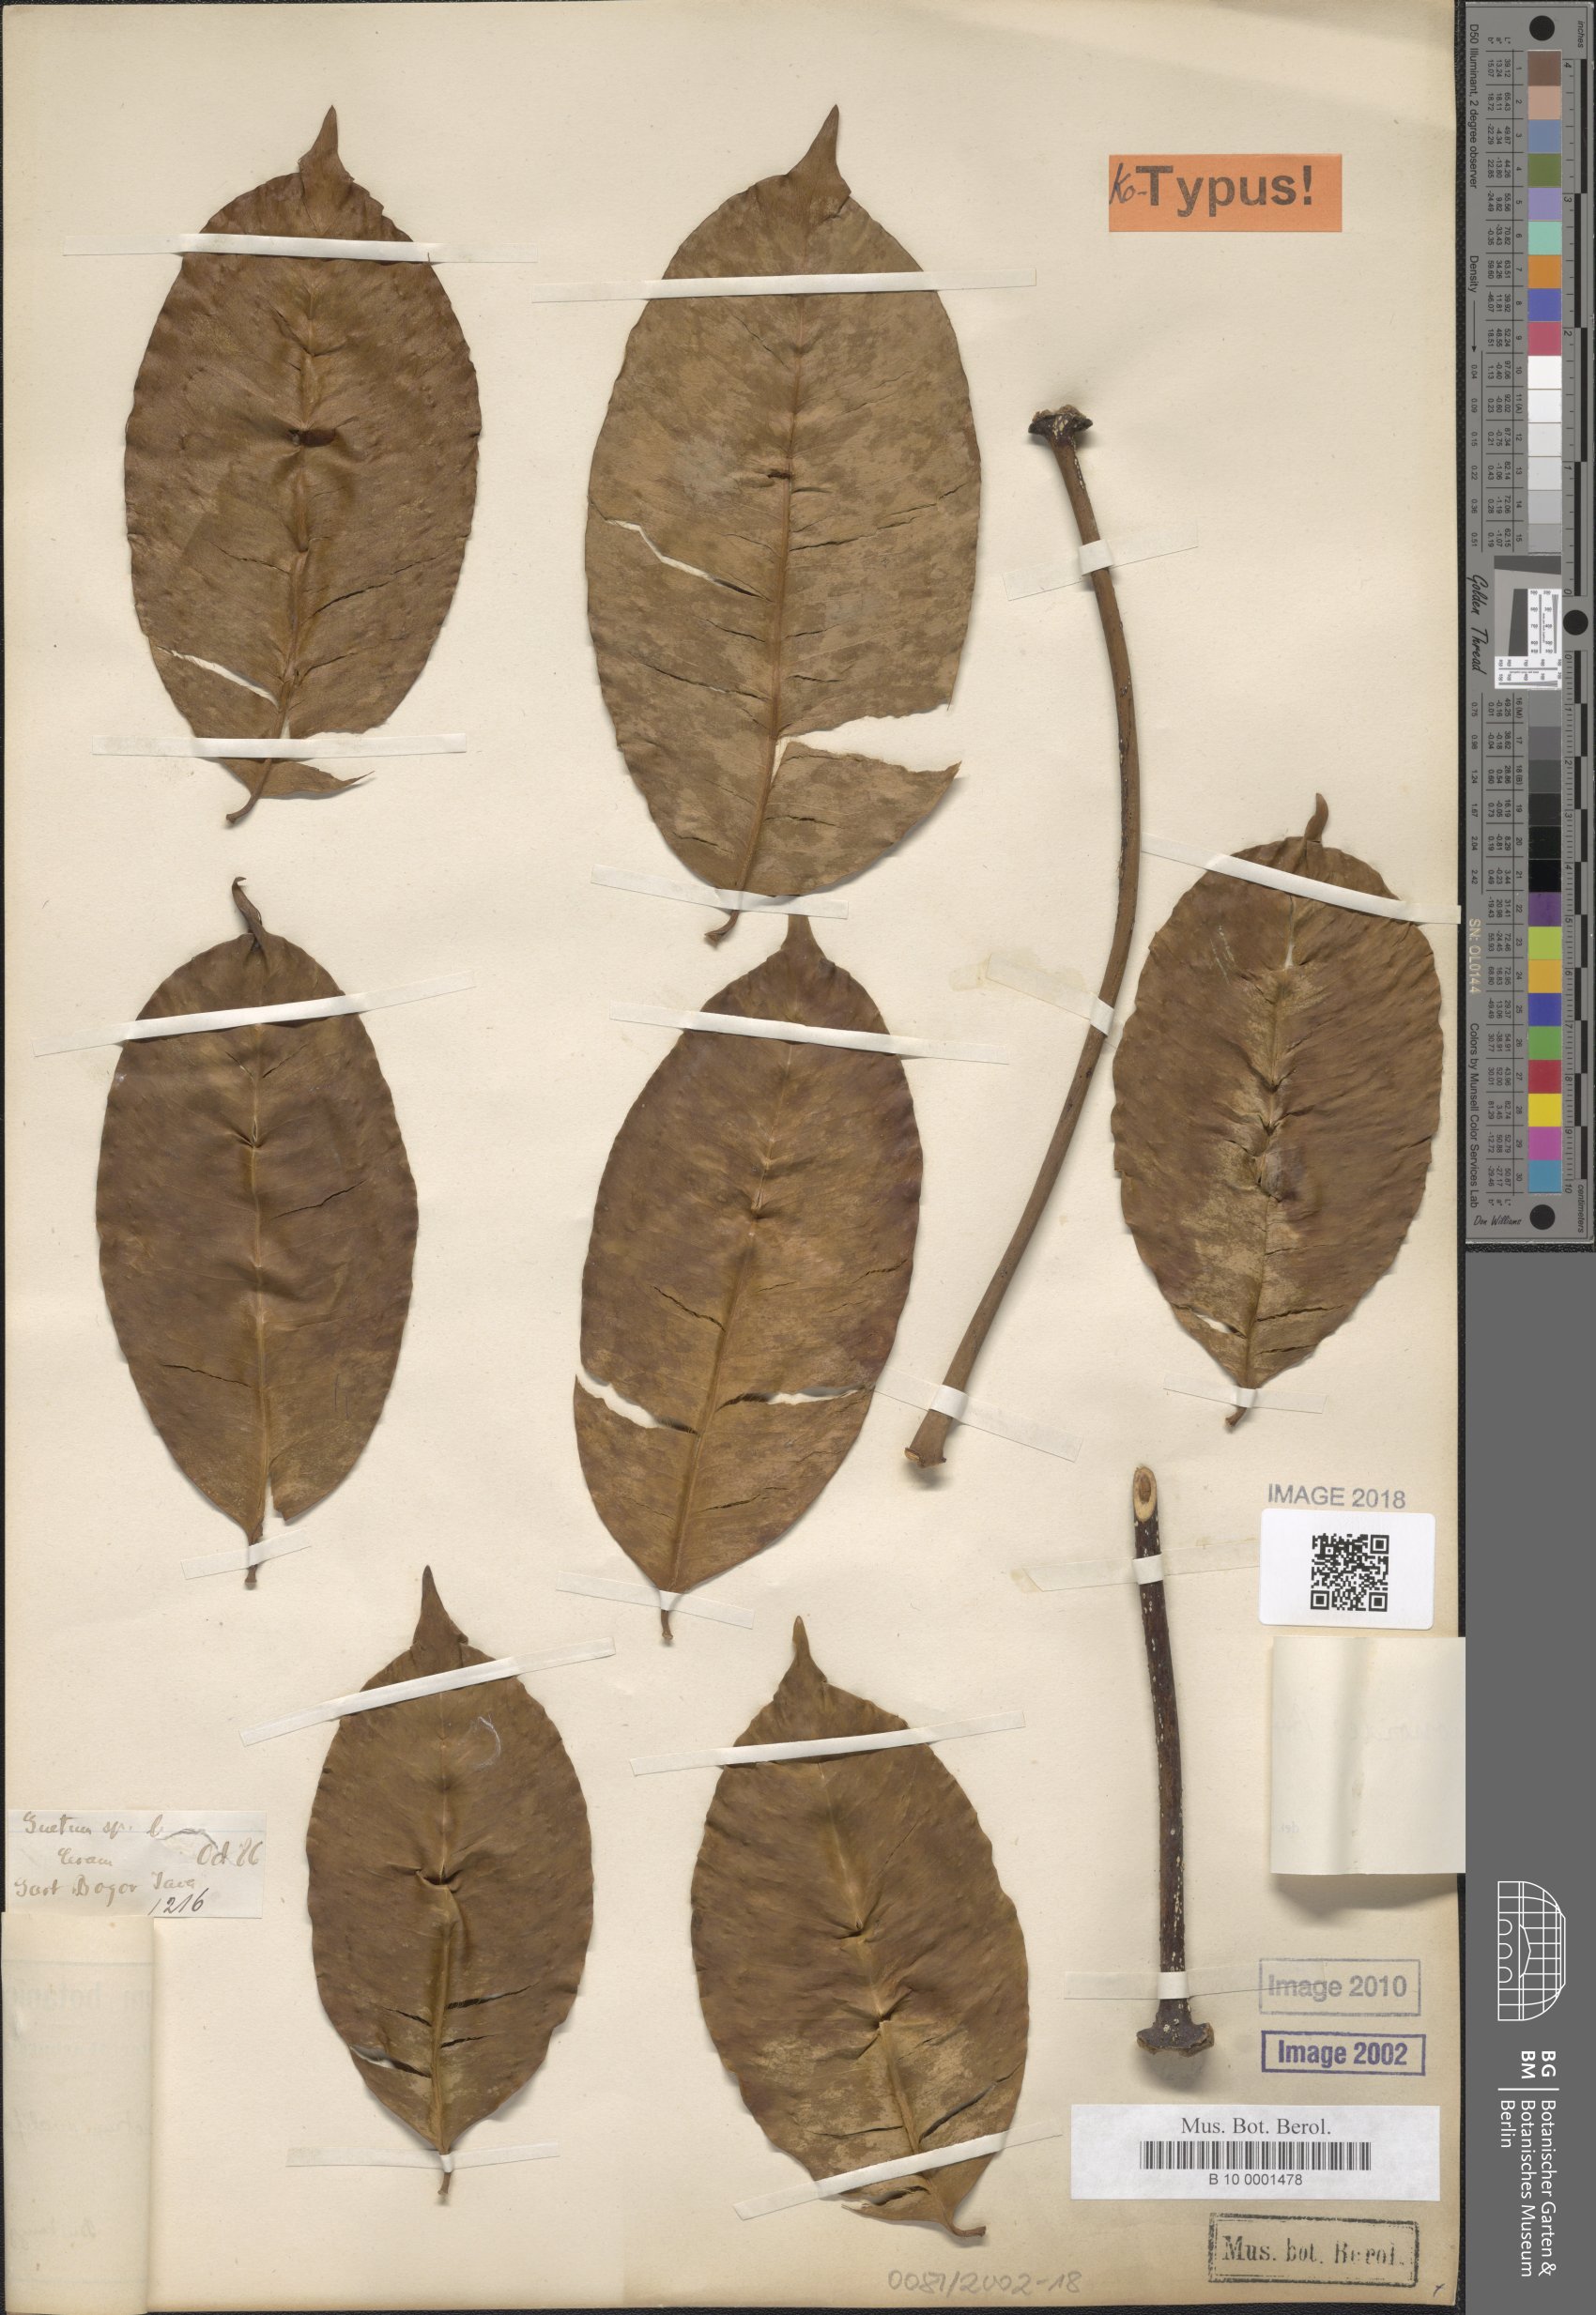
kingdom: Plantae
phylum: Tracheophyta
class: Gnetopsida
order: Gnetales
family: Gnetaceae
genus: Gnetum
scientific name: Gnetum gnemonoides
